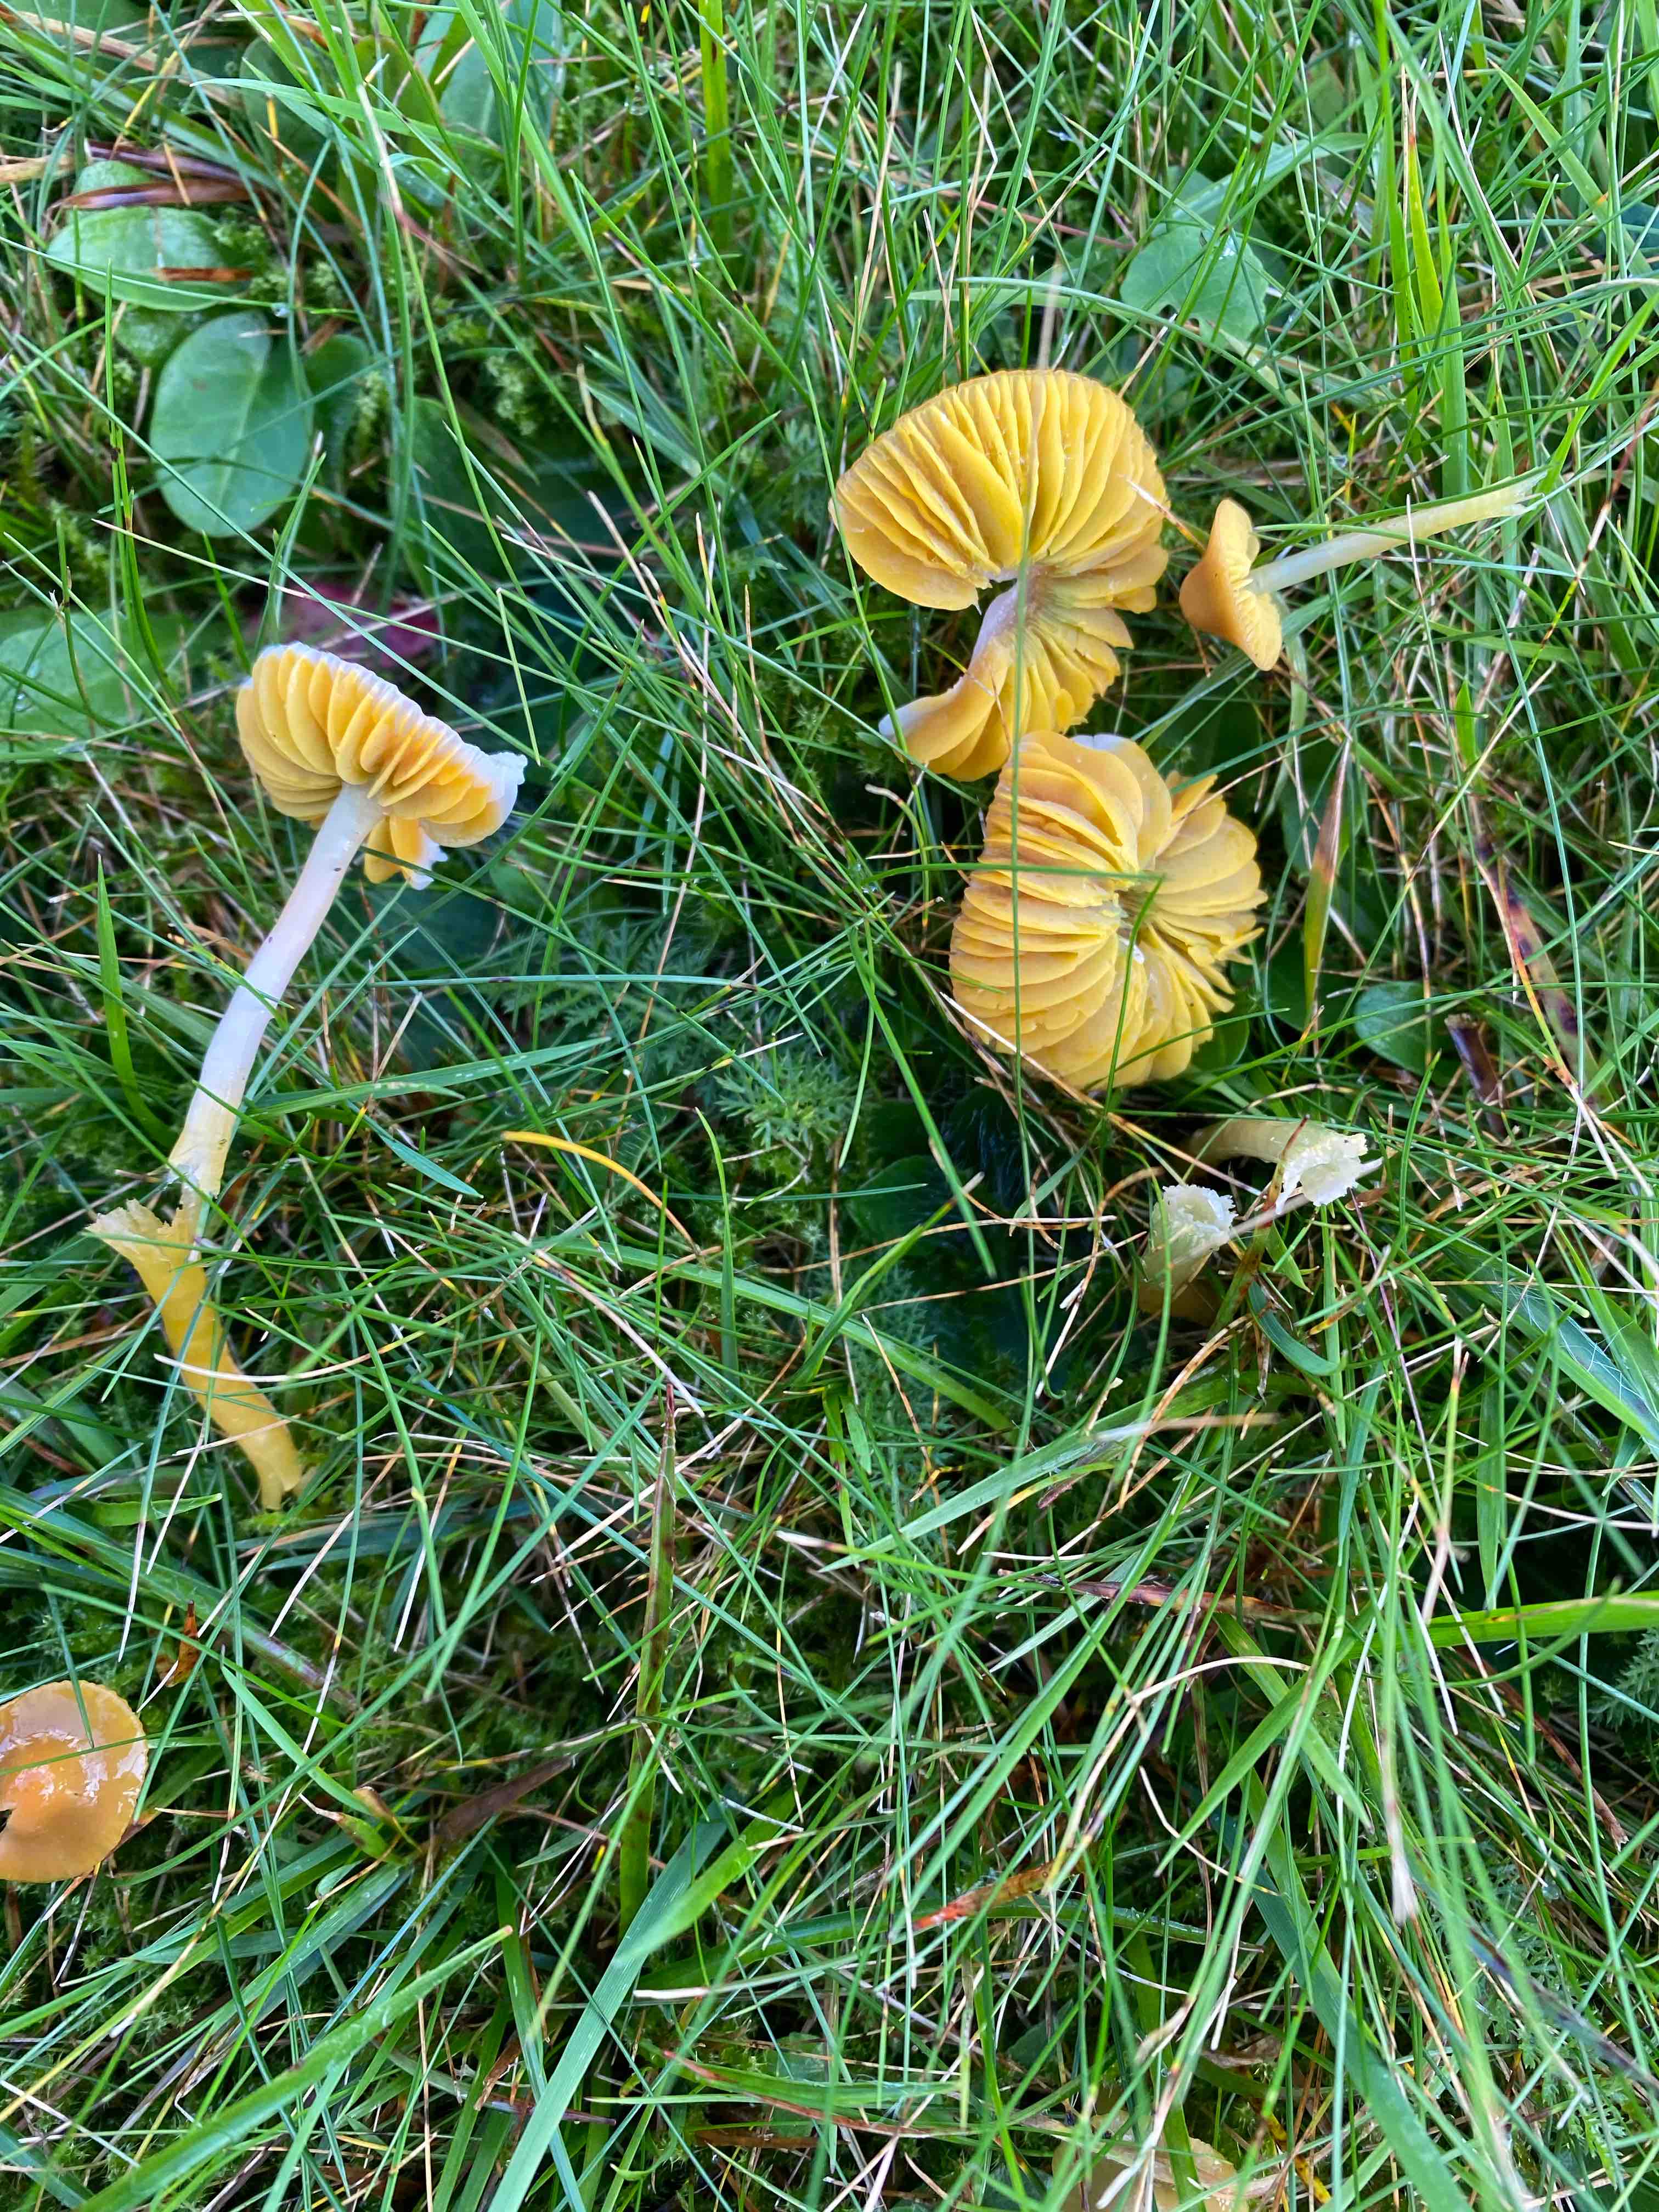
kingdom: Fungi
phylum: Basidiomycota
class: Agaricomycetes
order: Agaricales
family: Hygrophoraceae
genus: Gliophorus
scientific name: Gliophorus psittacinus
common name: papegøje-vokshat
